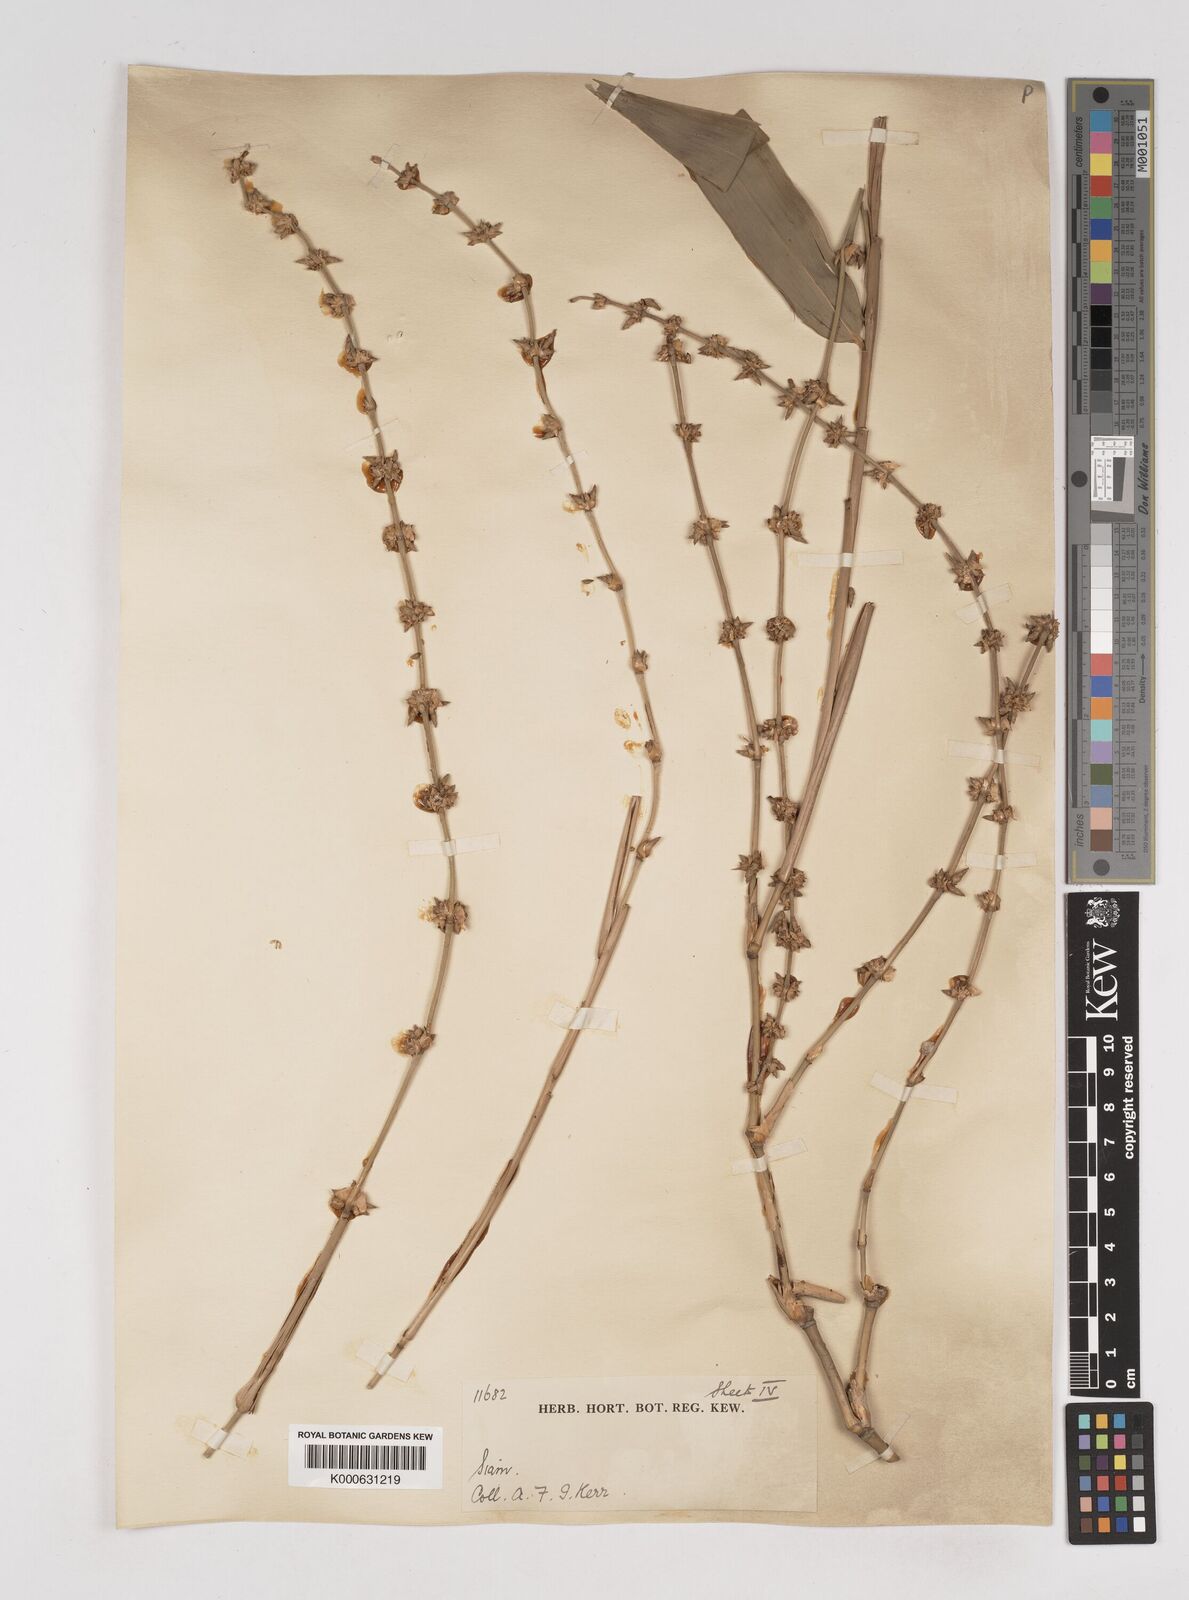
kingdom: Plantae
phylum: Tracheophyta
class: Liliopsida
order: Poales
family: Poaceae
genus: Gigantochloa
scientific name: Gigantochloa
